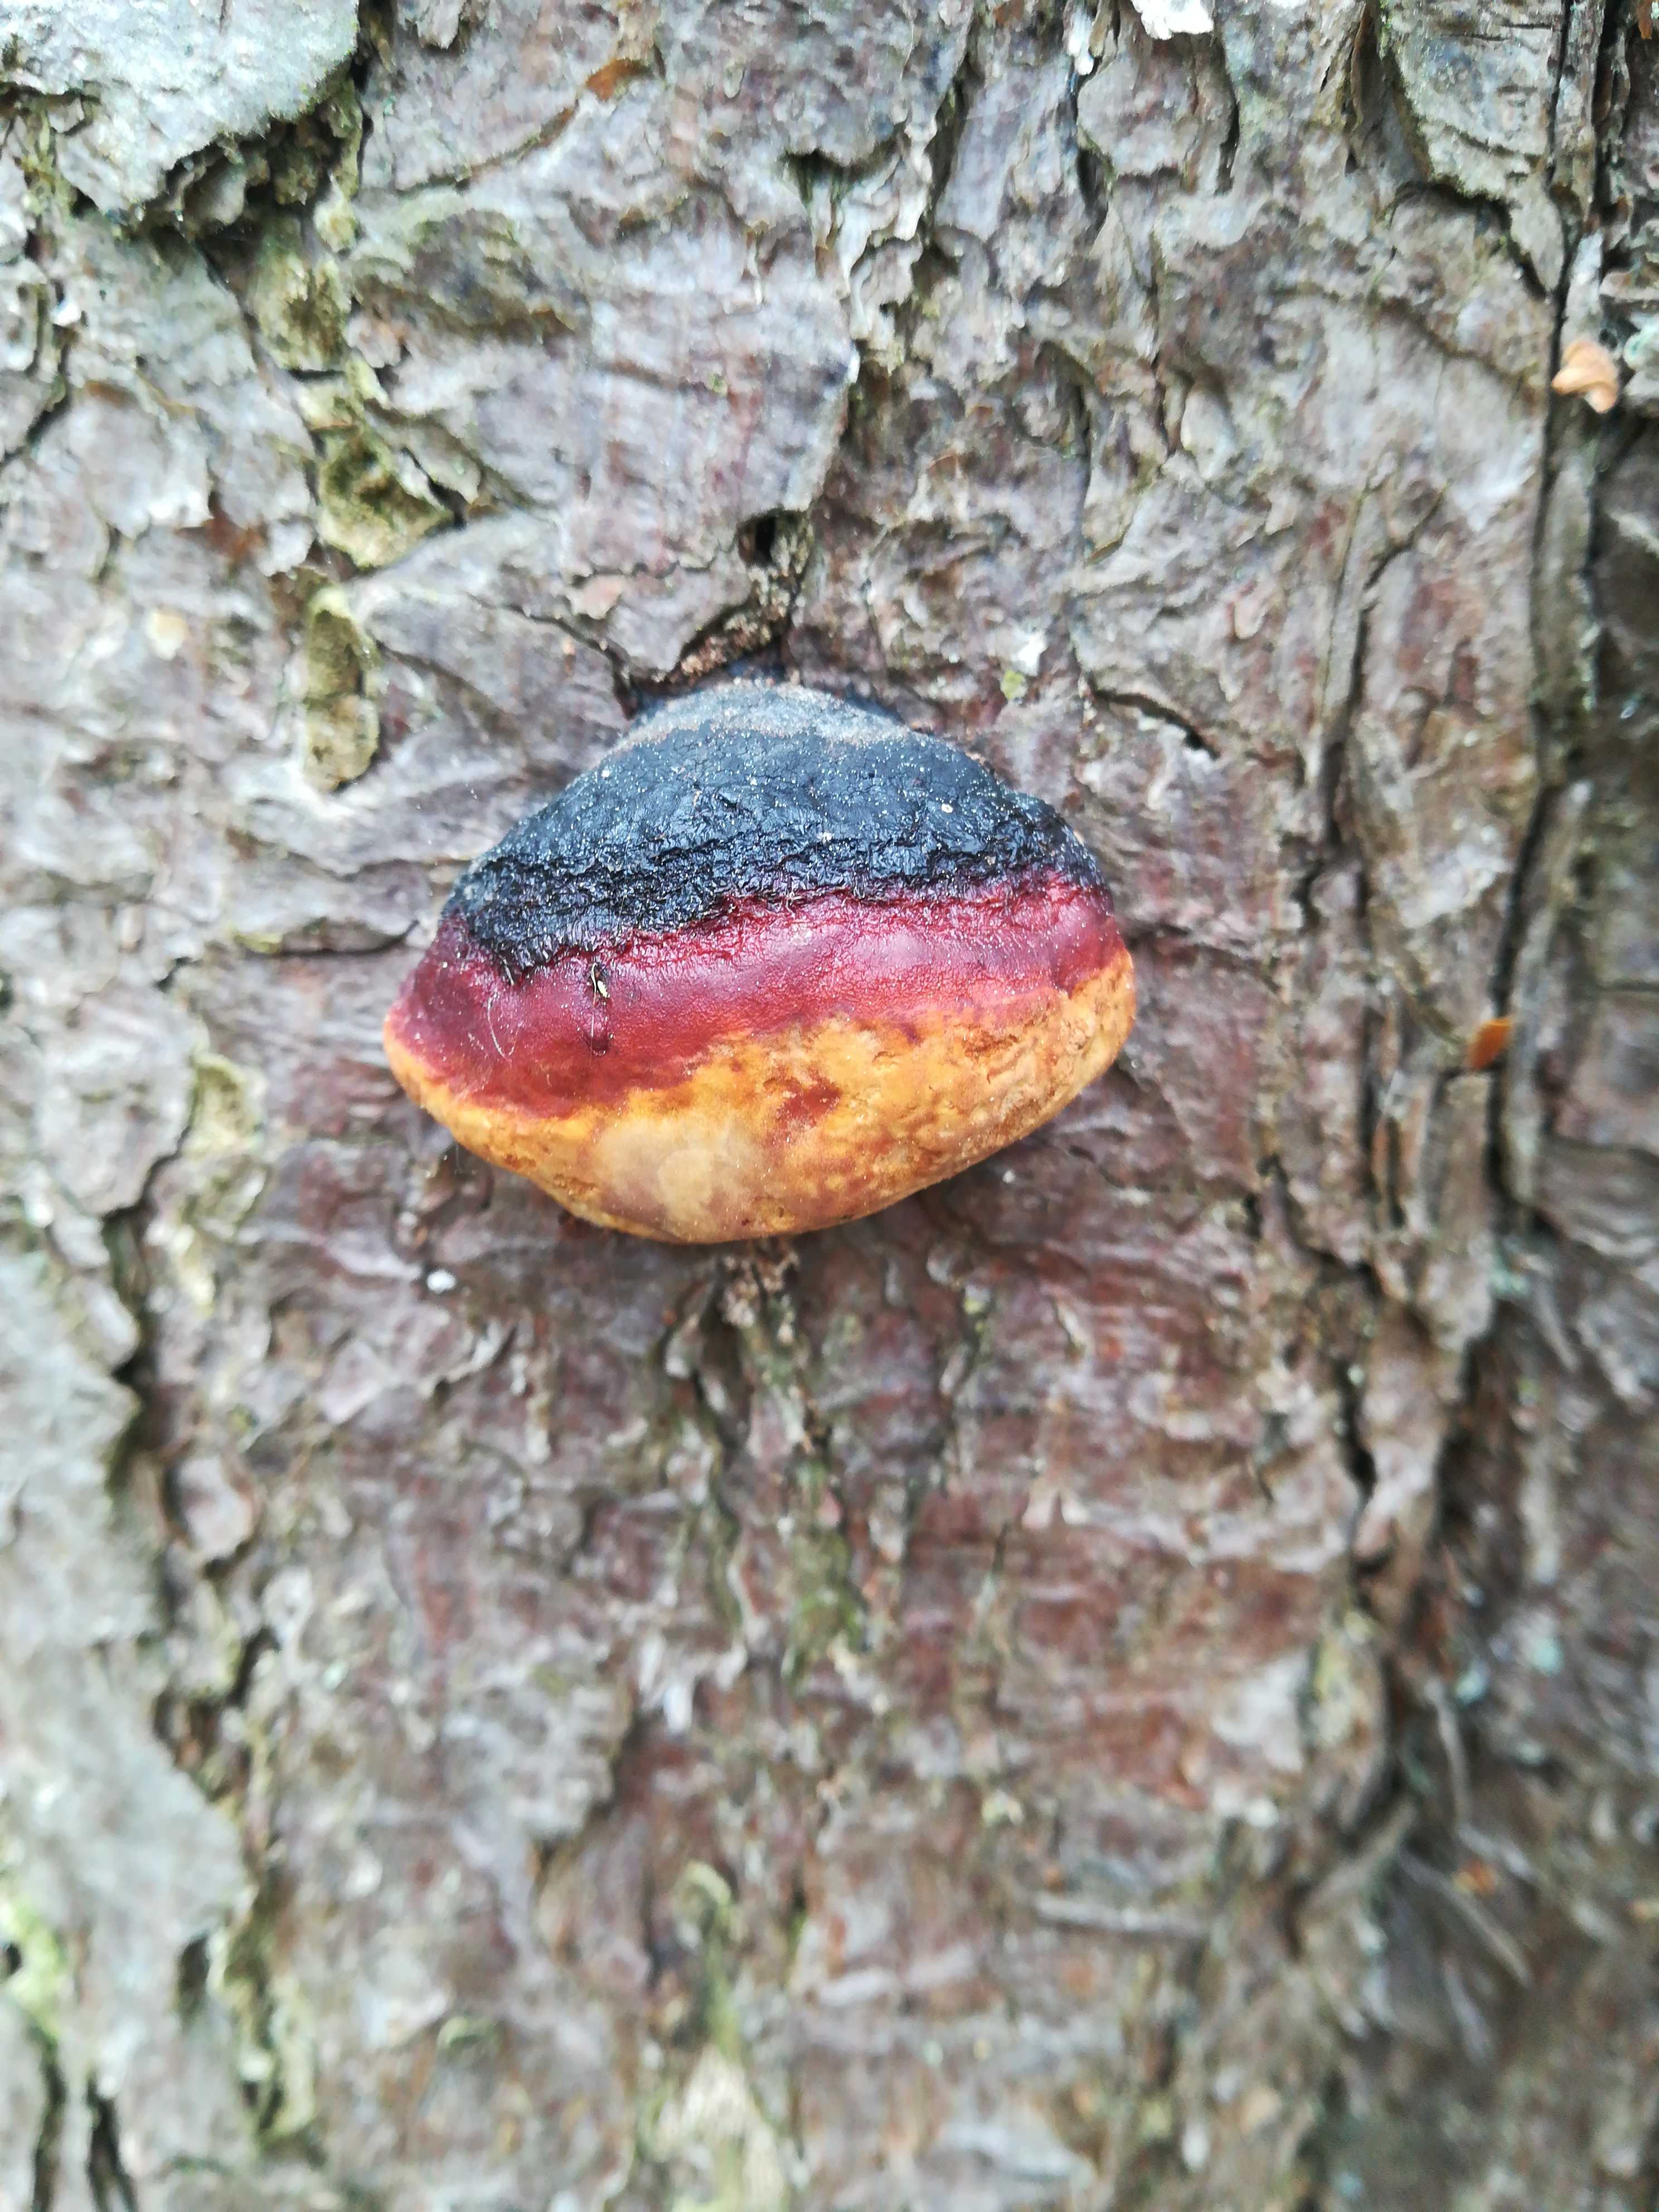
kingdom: Fungi
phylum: Basidiomycota
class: Agaricomycetes
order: Polyporales
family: Fomitopsidaceae
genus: Fomitopsis
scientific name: Fomitopsis pinicola
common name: randbæltet hovporesvamp
